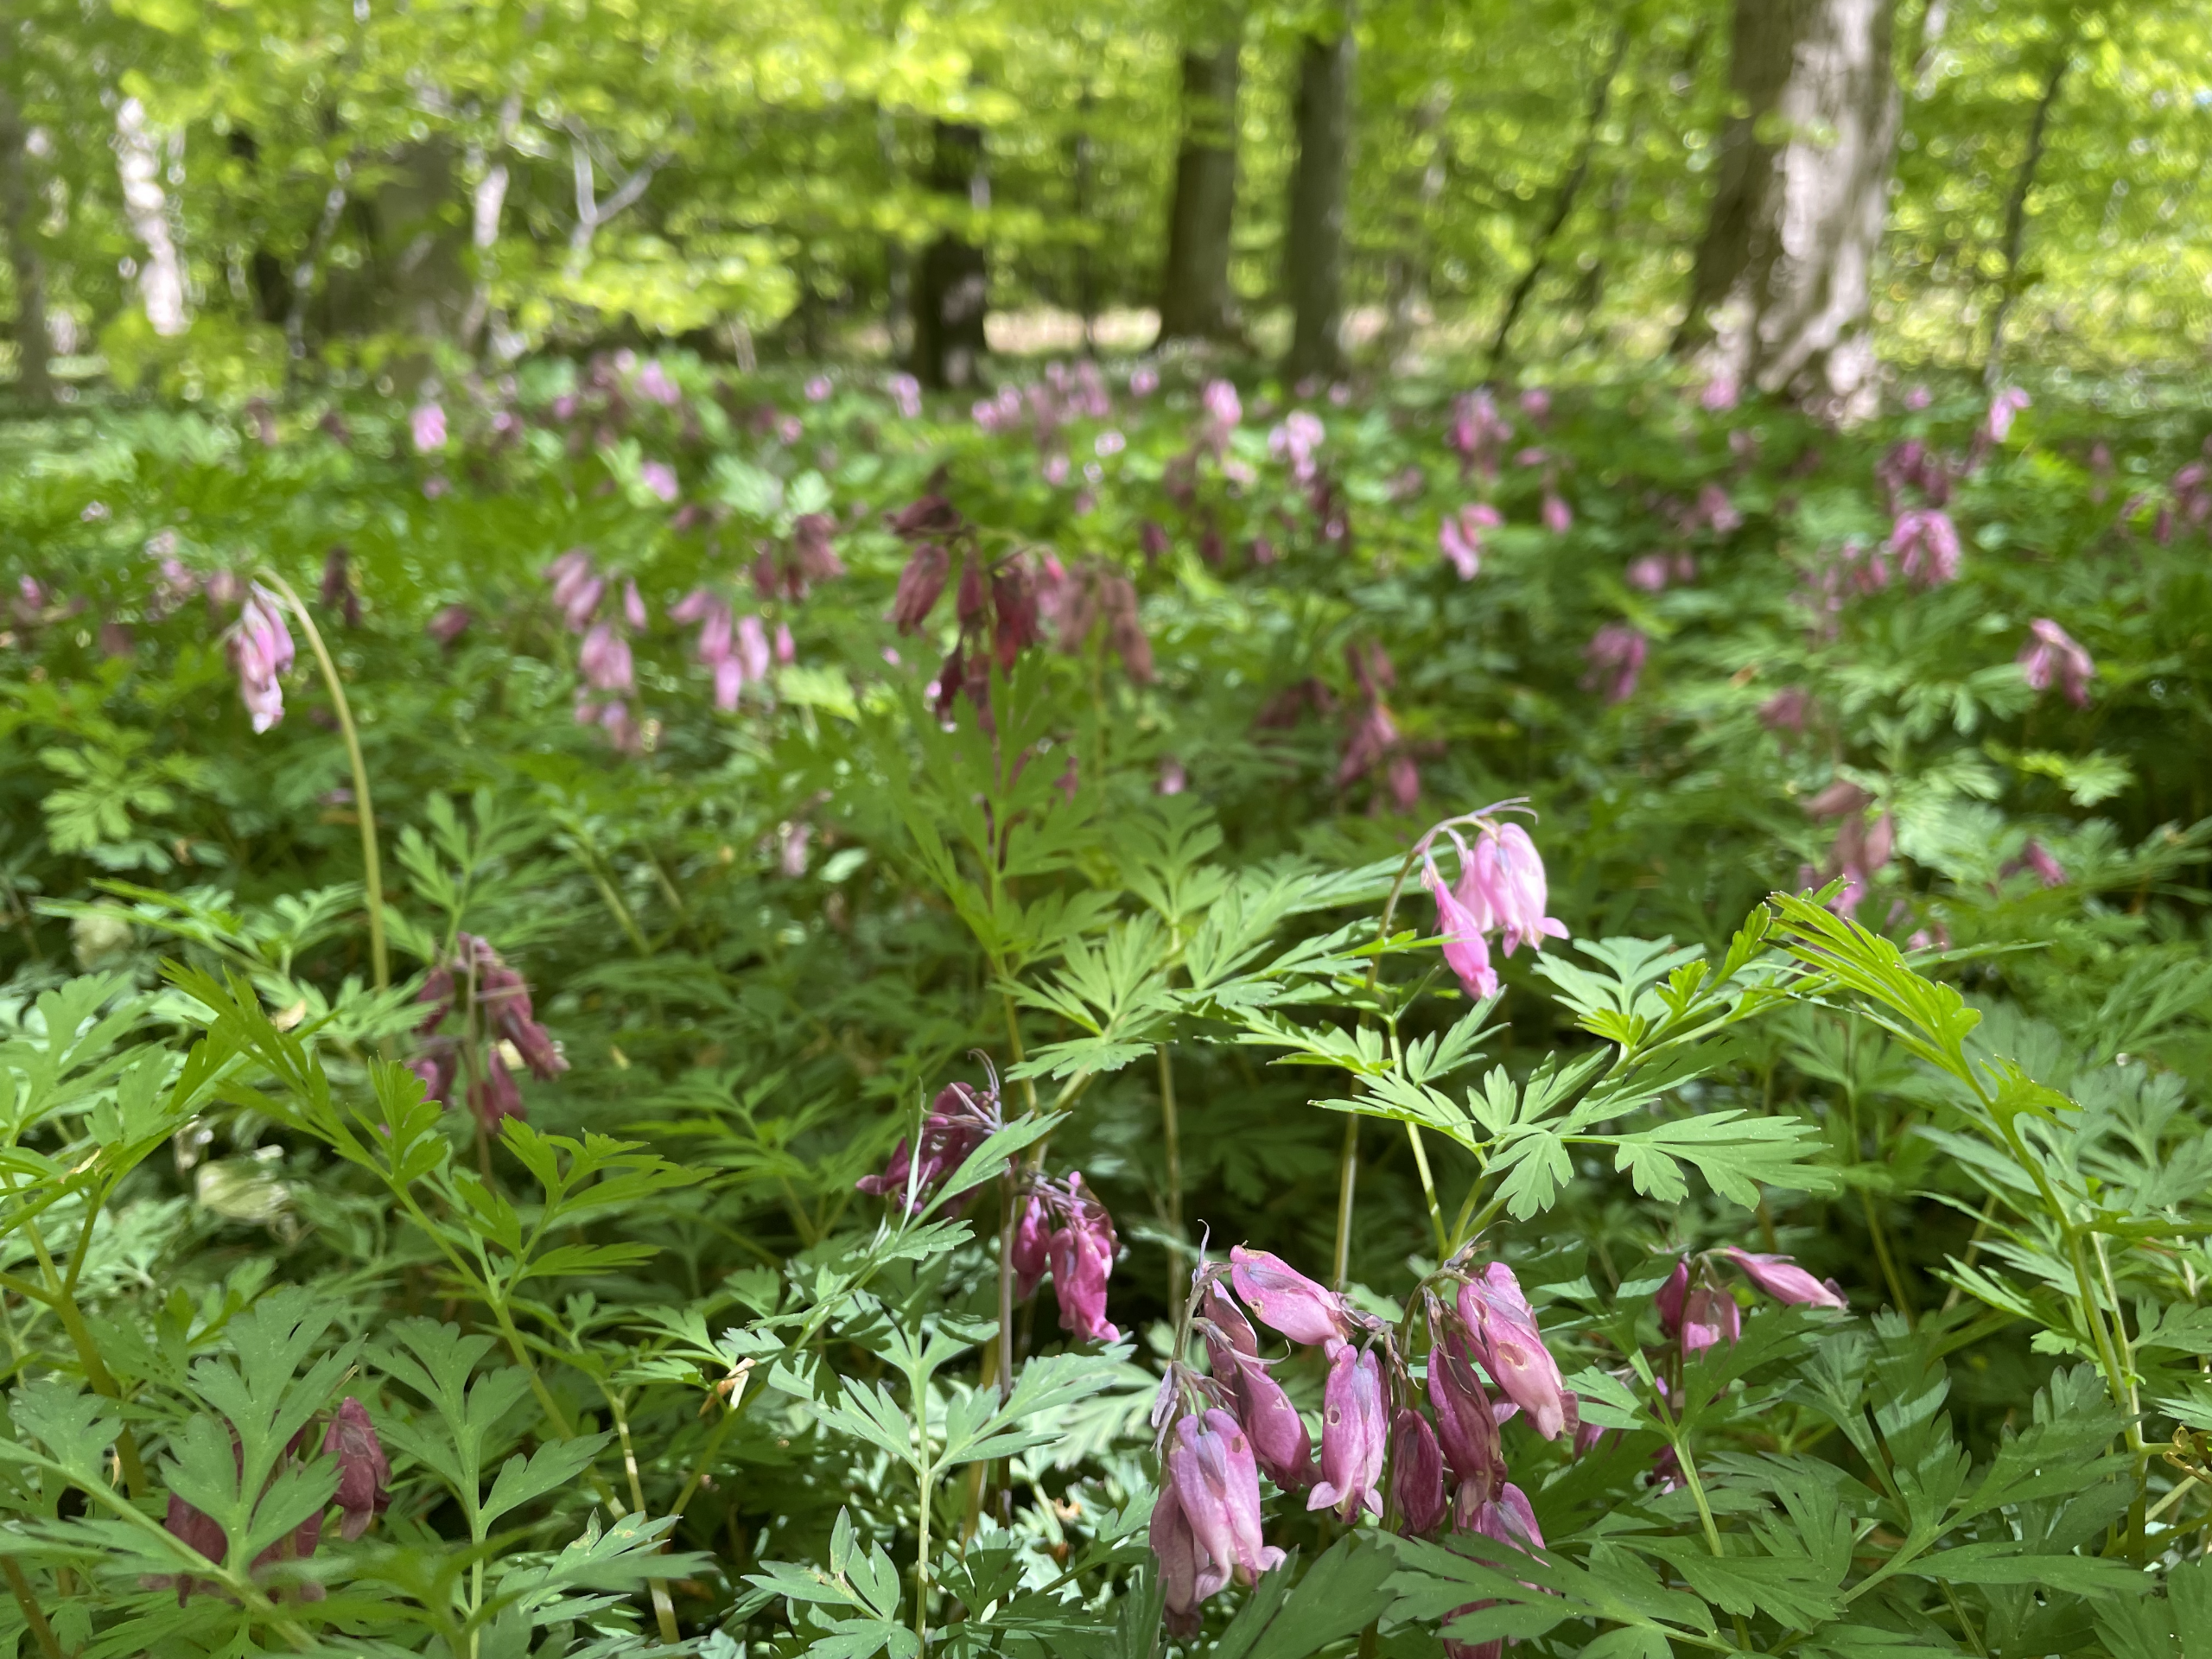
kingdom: Plantae
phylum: Tracheophyta
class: Magnoliopsida
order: Ranunculales
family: Papaveraceae
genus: Dicentra
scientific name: Dicentra formosa
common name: Småhjerte
